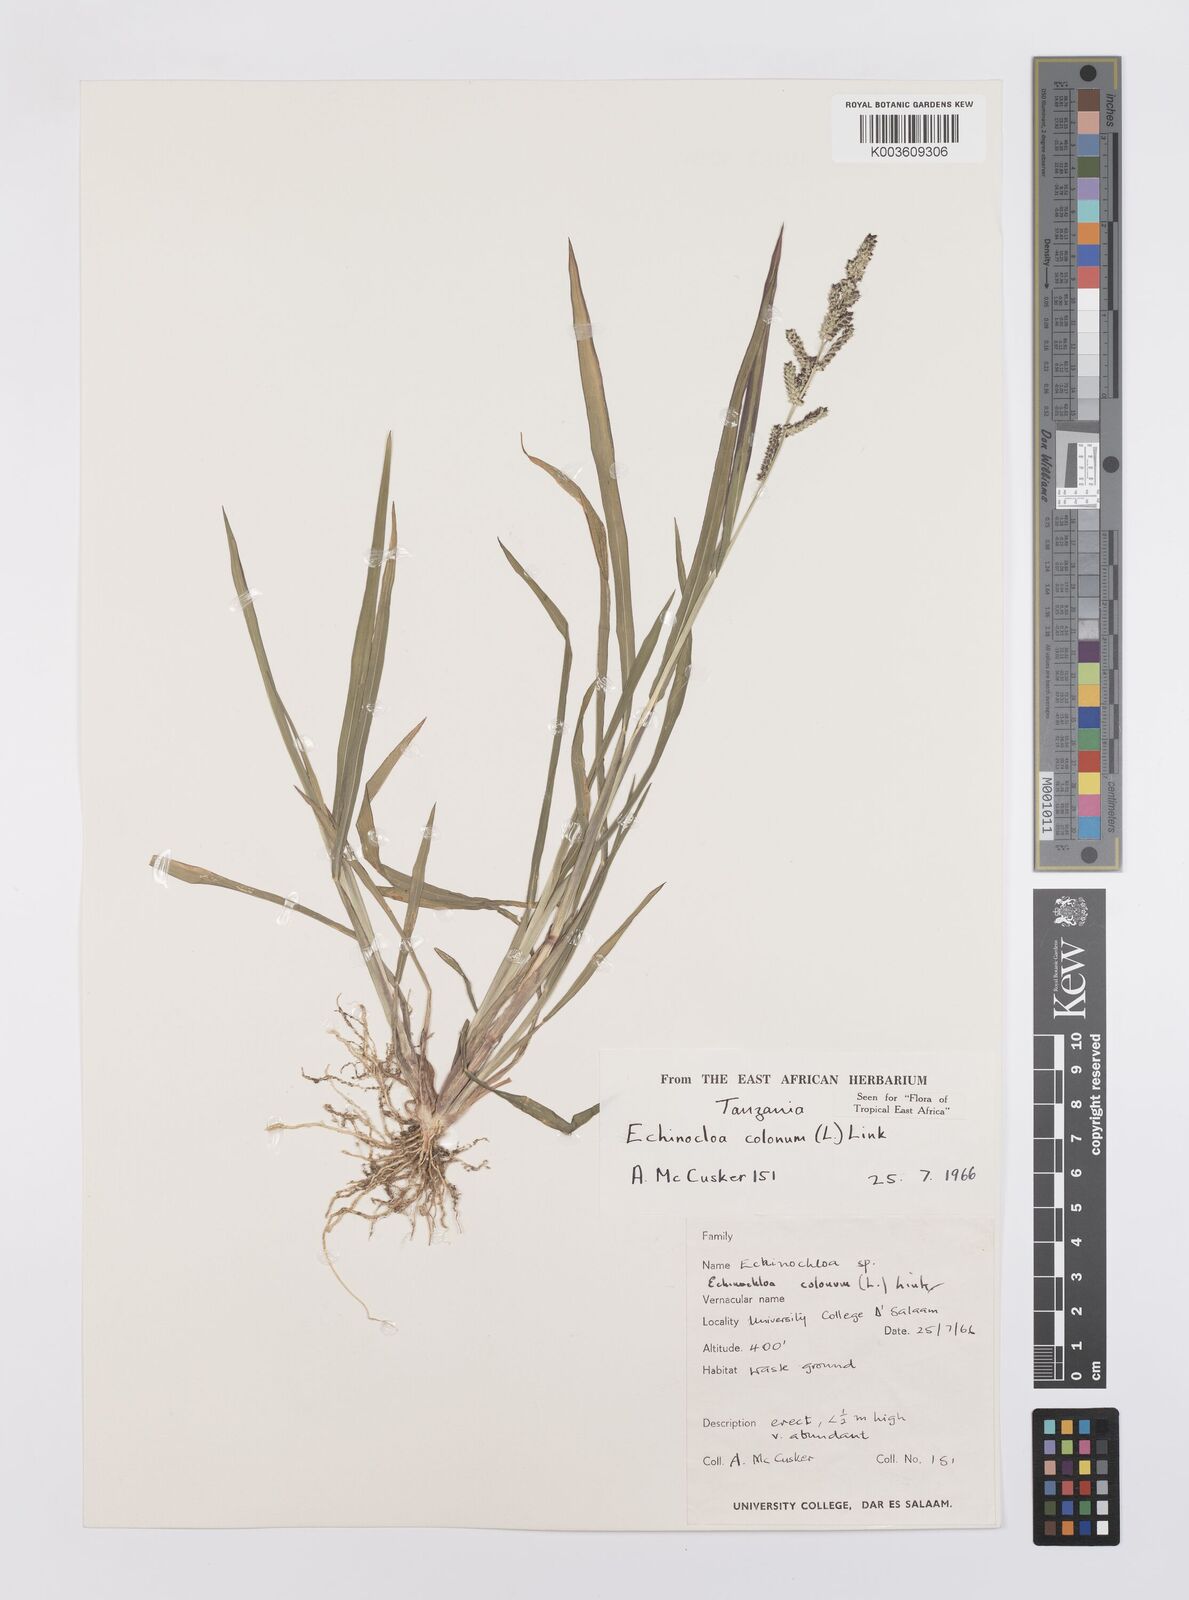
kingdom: Plantae
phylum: Tracheophyta
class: Liliopsida
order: Poales
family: Poaceae
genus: Echinochloa
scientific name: Echinochloa colonum
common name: Jungle rice
